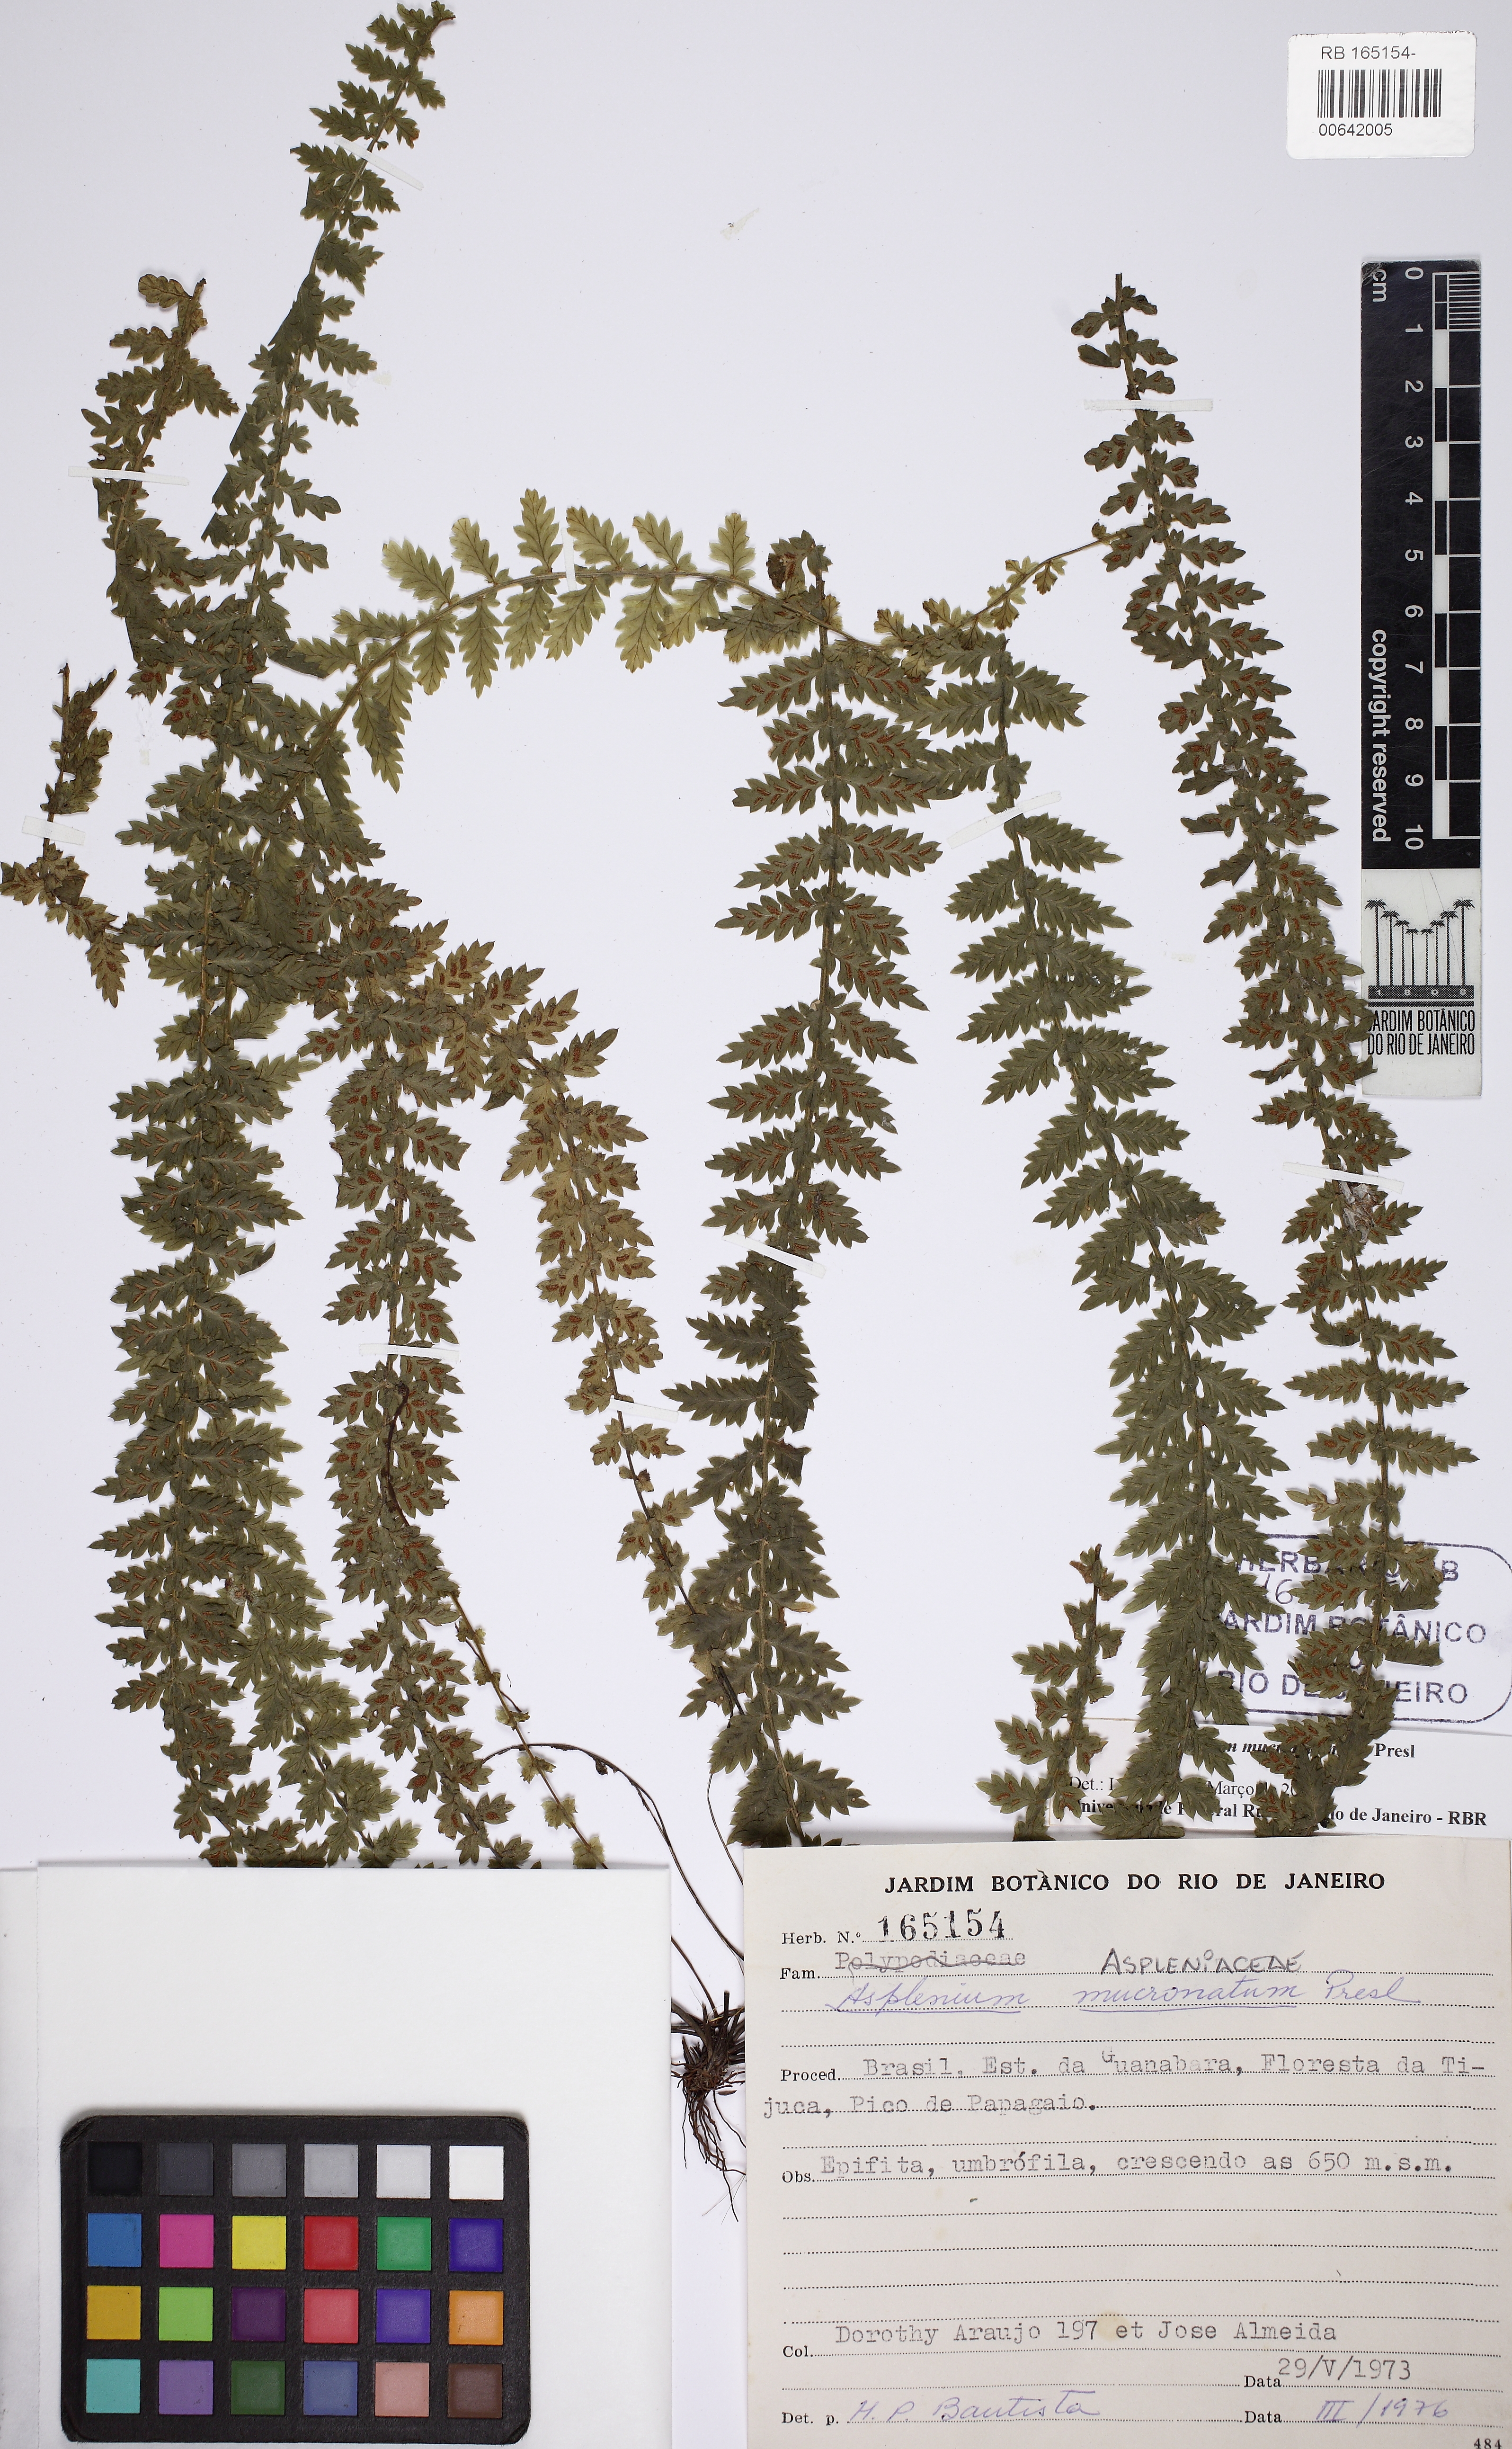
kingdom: Plantae
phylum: Tracheophyta
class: Polypodiopsida
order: Polypodiales
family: Aspleniaceae
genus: Asplenium
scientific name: Asplenium mucronatum
